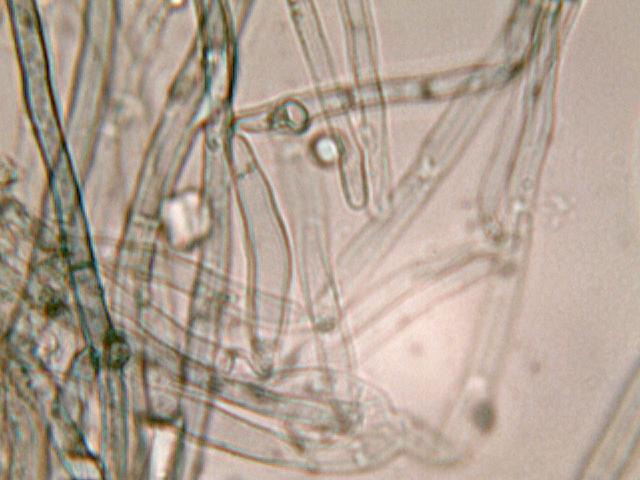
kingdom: Fungi
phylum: Basidiomycota
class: Agaricomycetes
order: Atheliales
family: Atheliaceae
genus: Byssocorticium
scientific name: Byssocorticium atrovirens
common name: blå førnehinde
